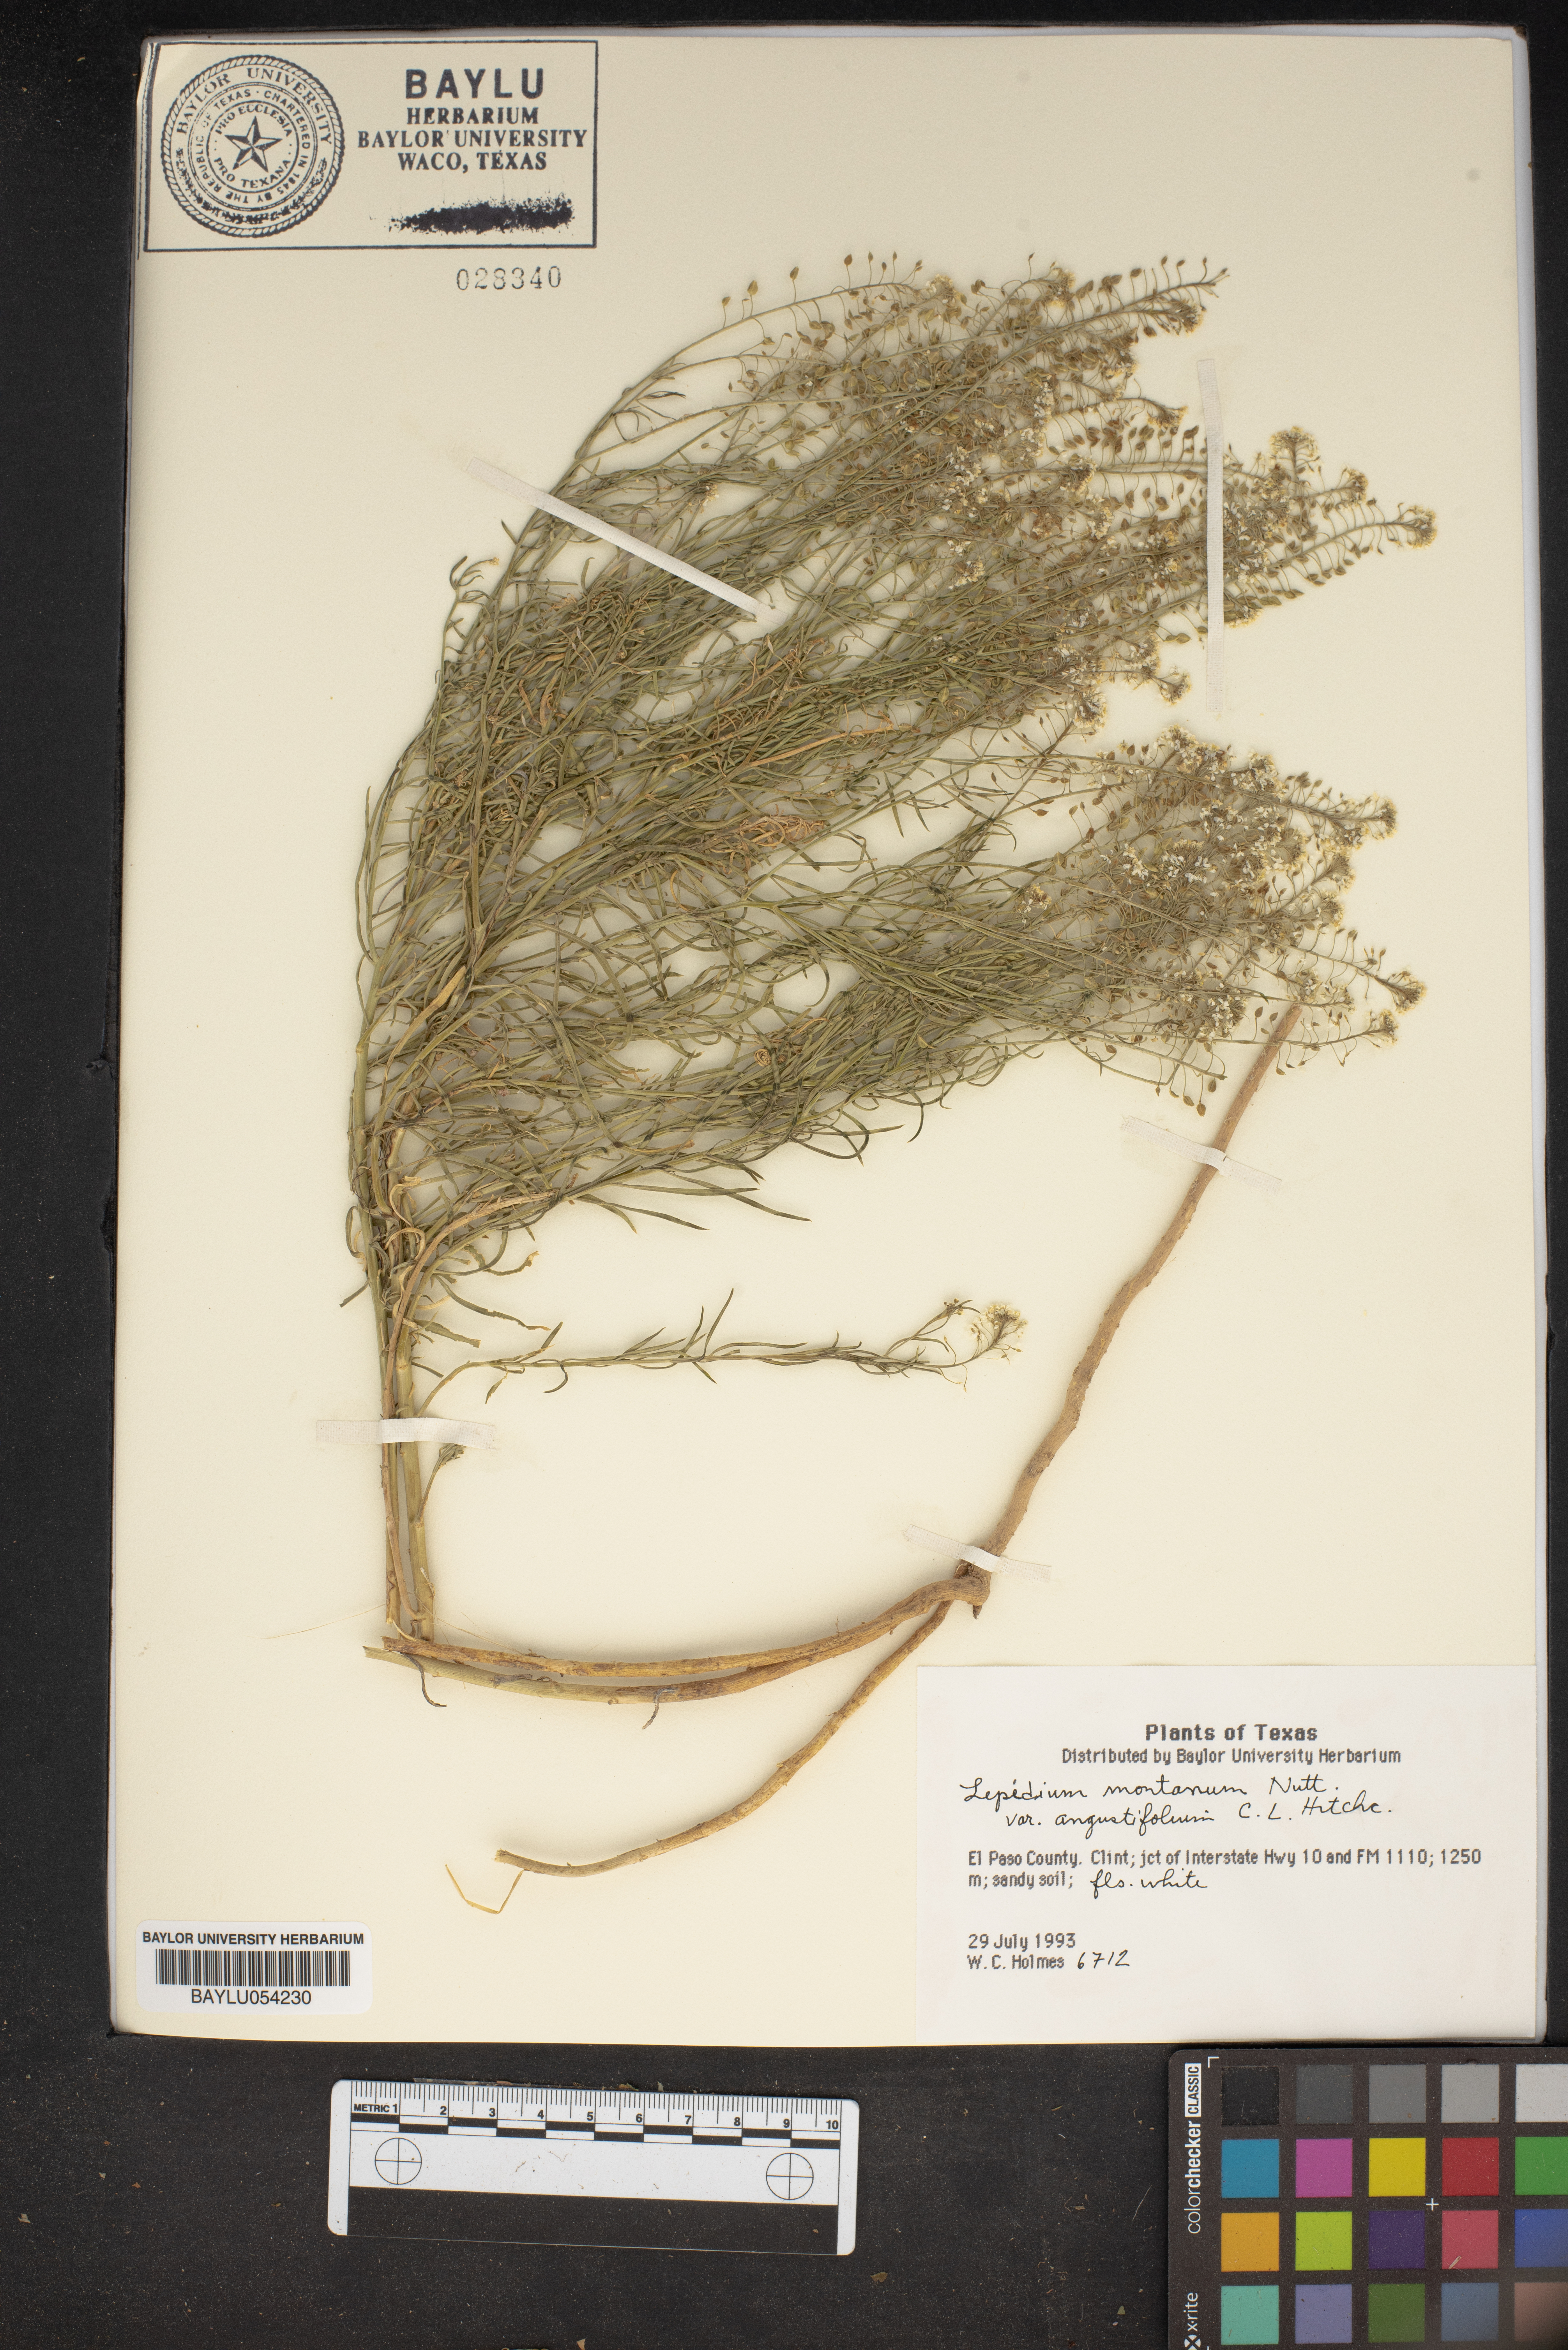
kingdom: Plantae
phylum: Tracheophyta
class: Magnoliopsida
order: Brassicales
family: Brassicaceae
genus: Lepidium
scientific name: Lepidium alyssoides
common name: Mesa pepperweed
